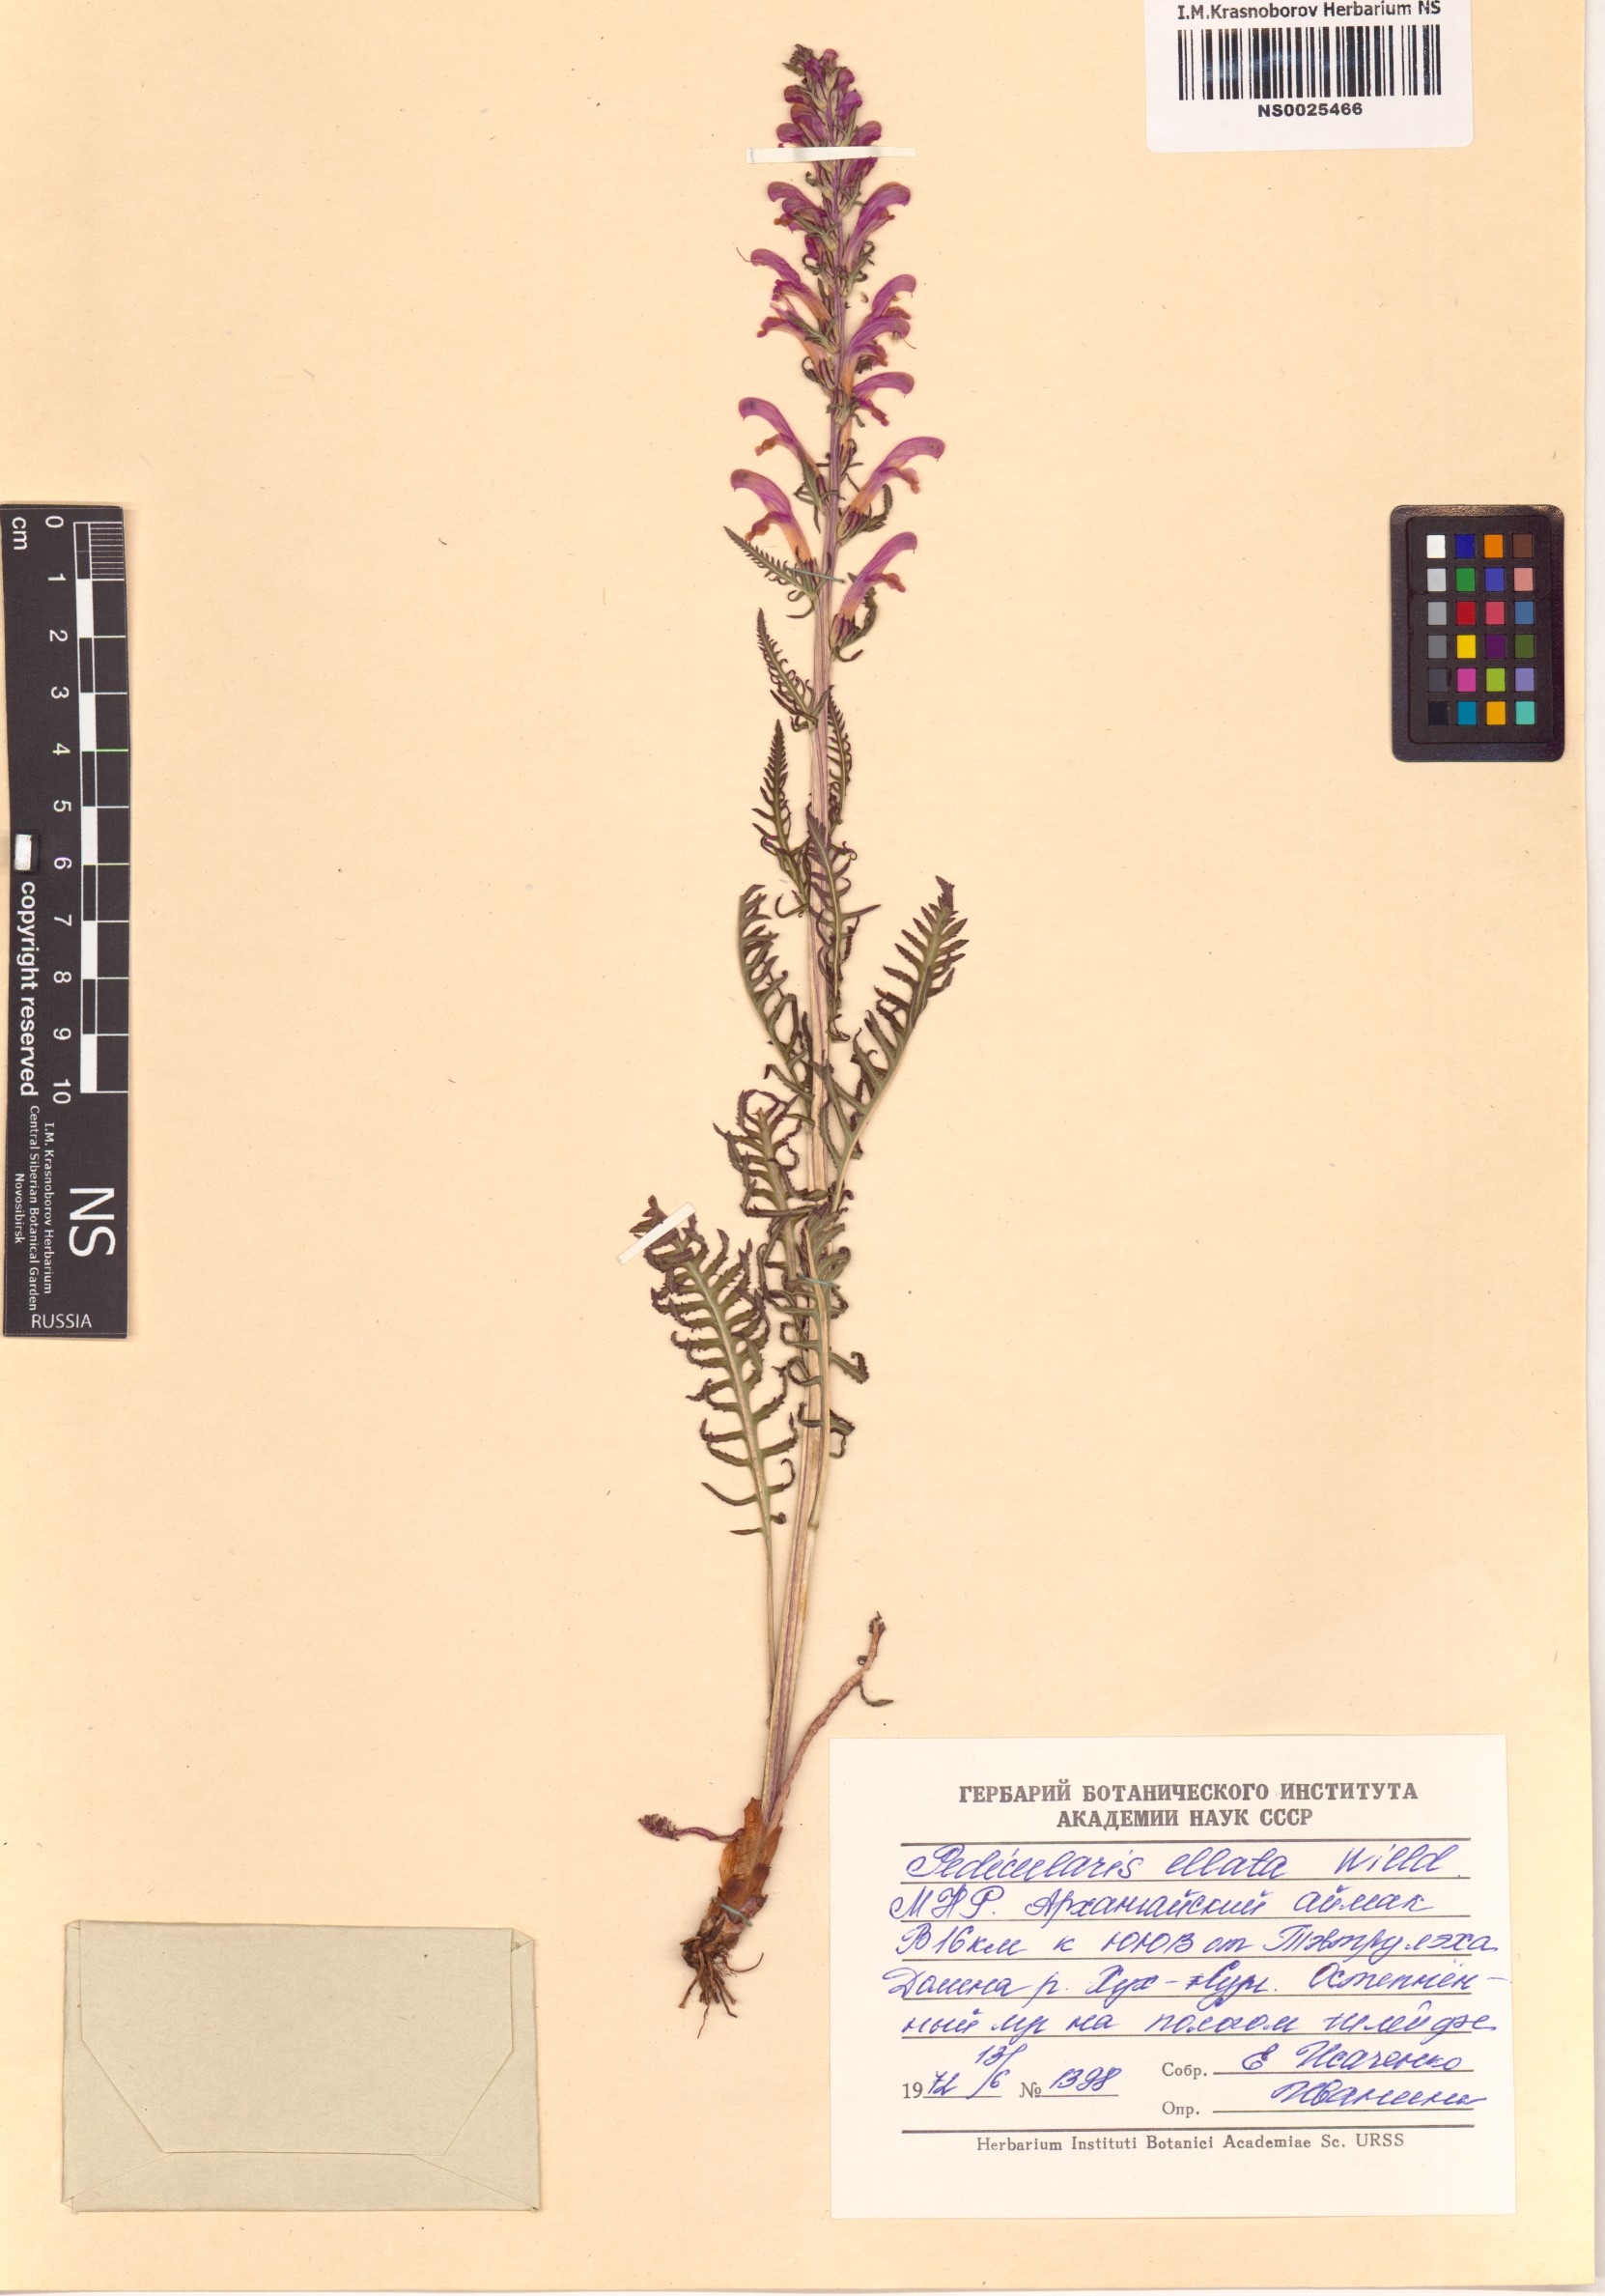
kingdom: Plantae
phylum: Tracheophyta
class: Magnoliopsida
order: Lamiales
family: Orobanchaceae
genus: Pedicularis
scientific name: Pedicularis elata
